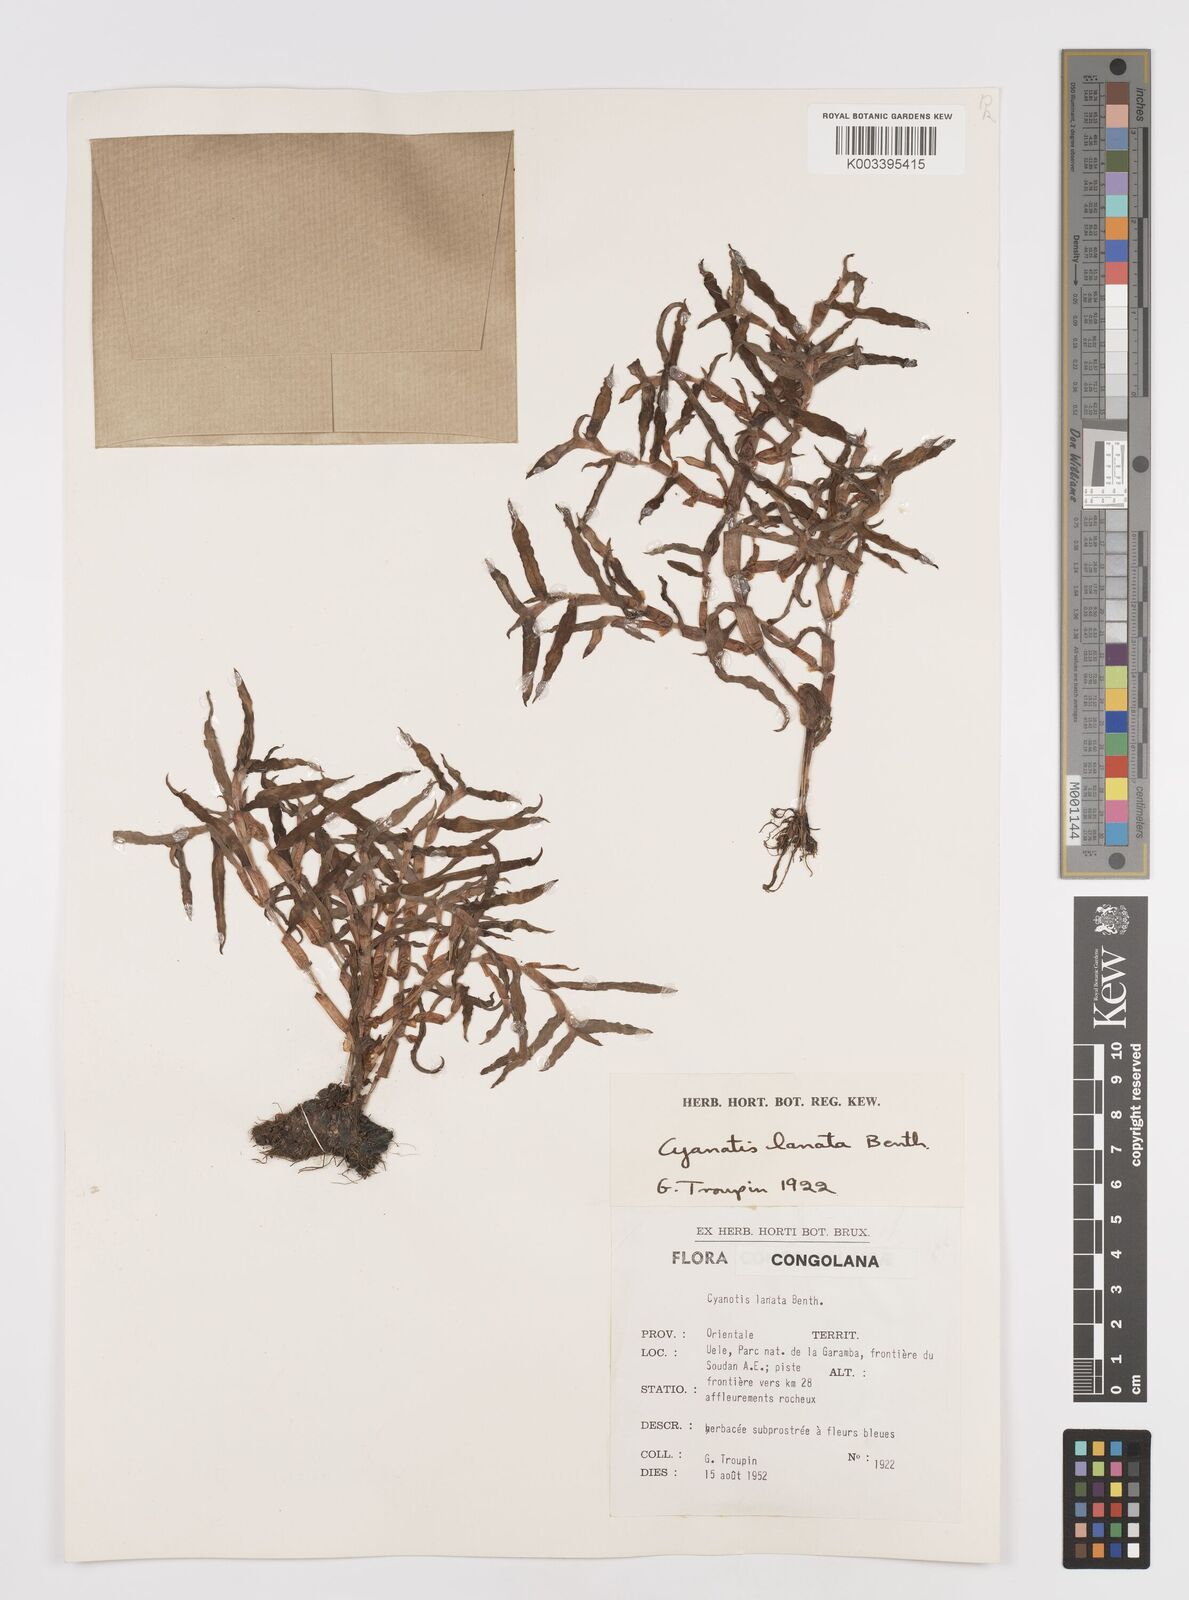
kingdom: Plantae
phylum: Tracheophyta
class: Liliopsida
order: Commelinales
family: Commelinaceae
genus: Cyanotis
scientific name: Cyanotis lanata
